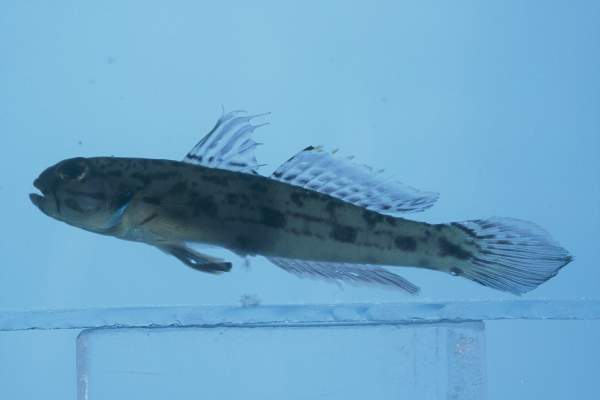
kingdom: Animalia
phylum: Chordata
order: Perciformes
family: Gobiidae
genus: Acentrogobius
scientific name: Acentrogobius suluensis
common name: Sulu goby
